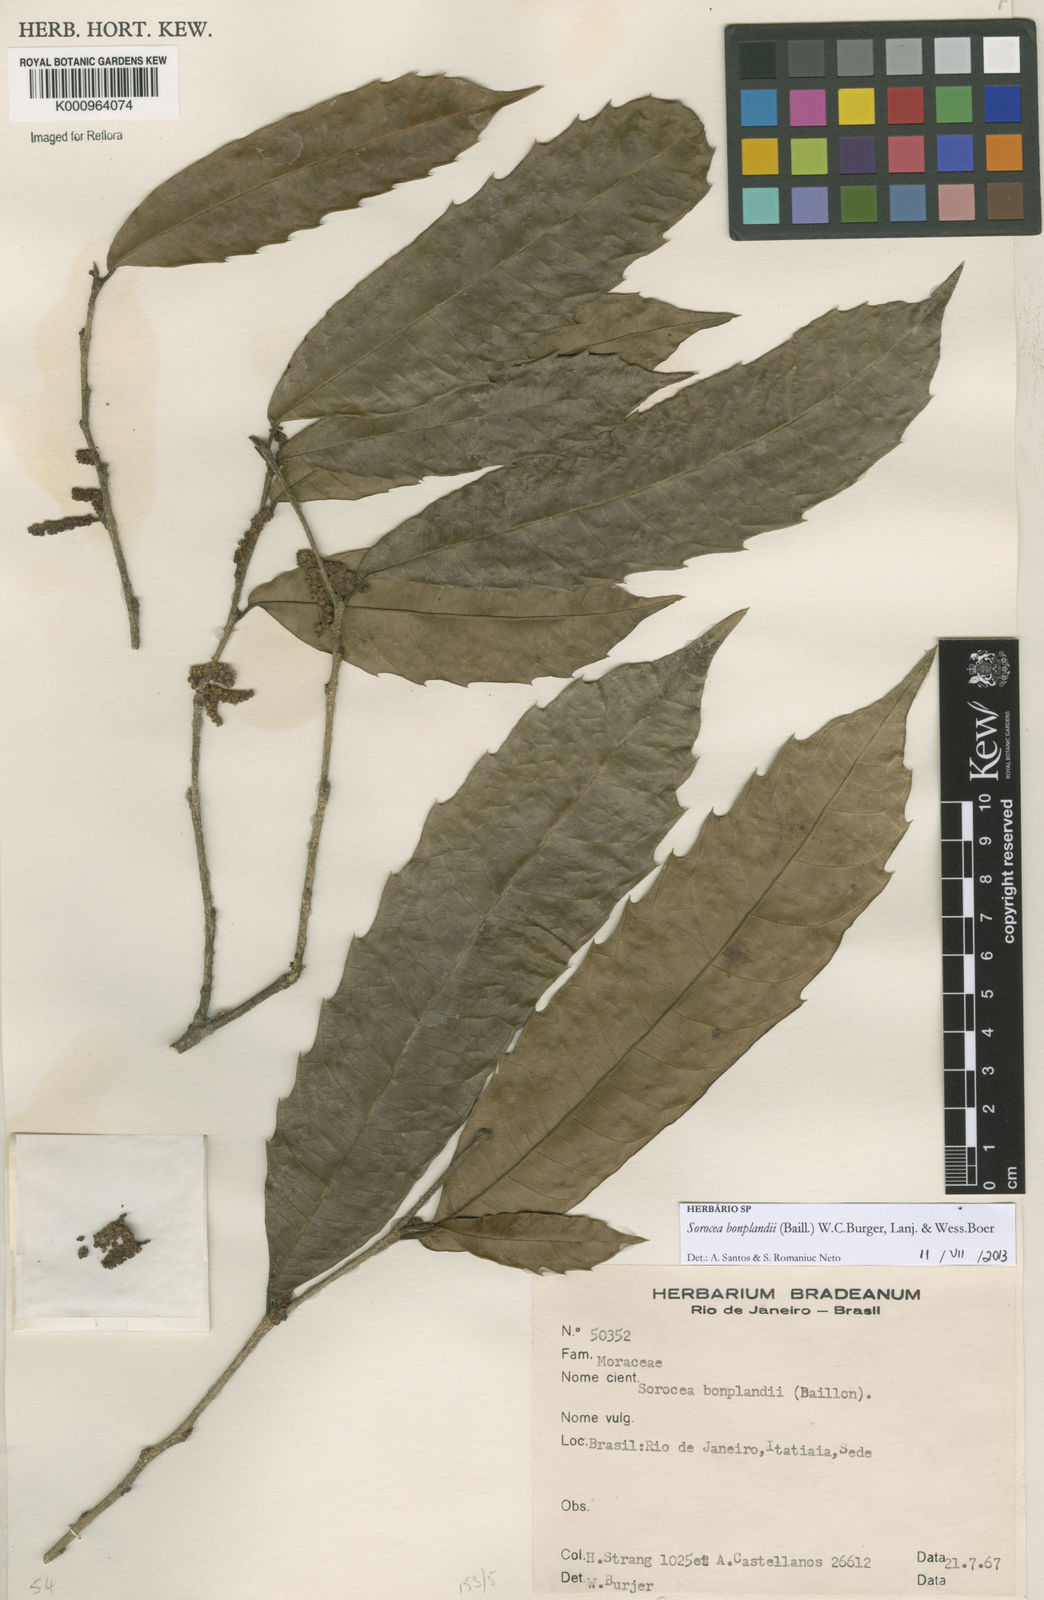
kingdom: Plantae
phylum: Tracheophyta
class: Magnoliopsida
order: Rosales
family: Moraceae
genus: Sorocea
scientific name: Sorocea
